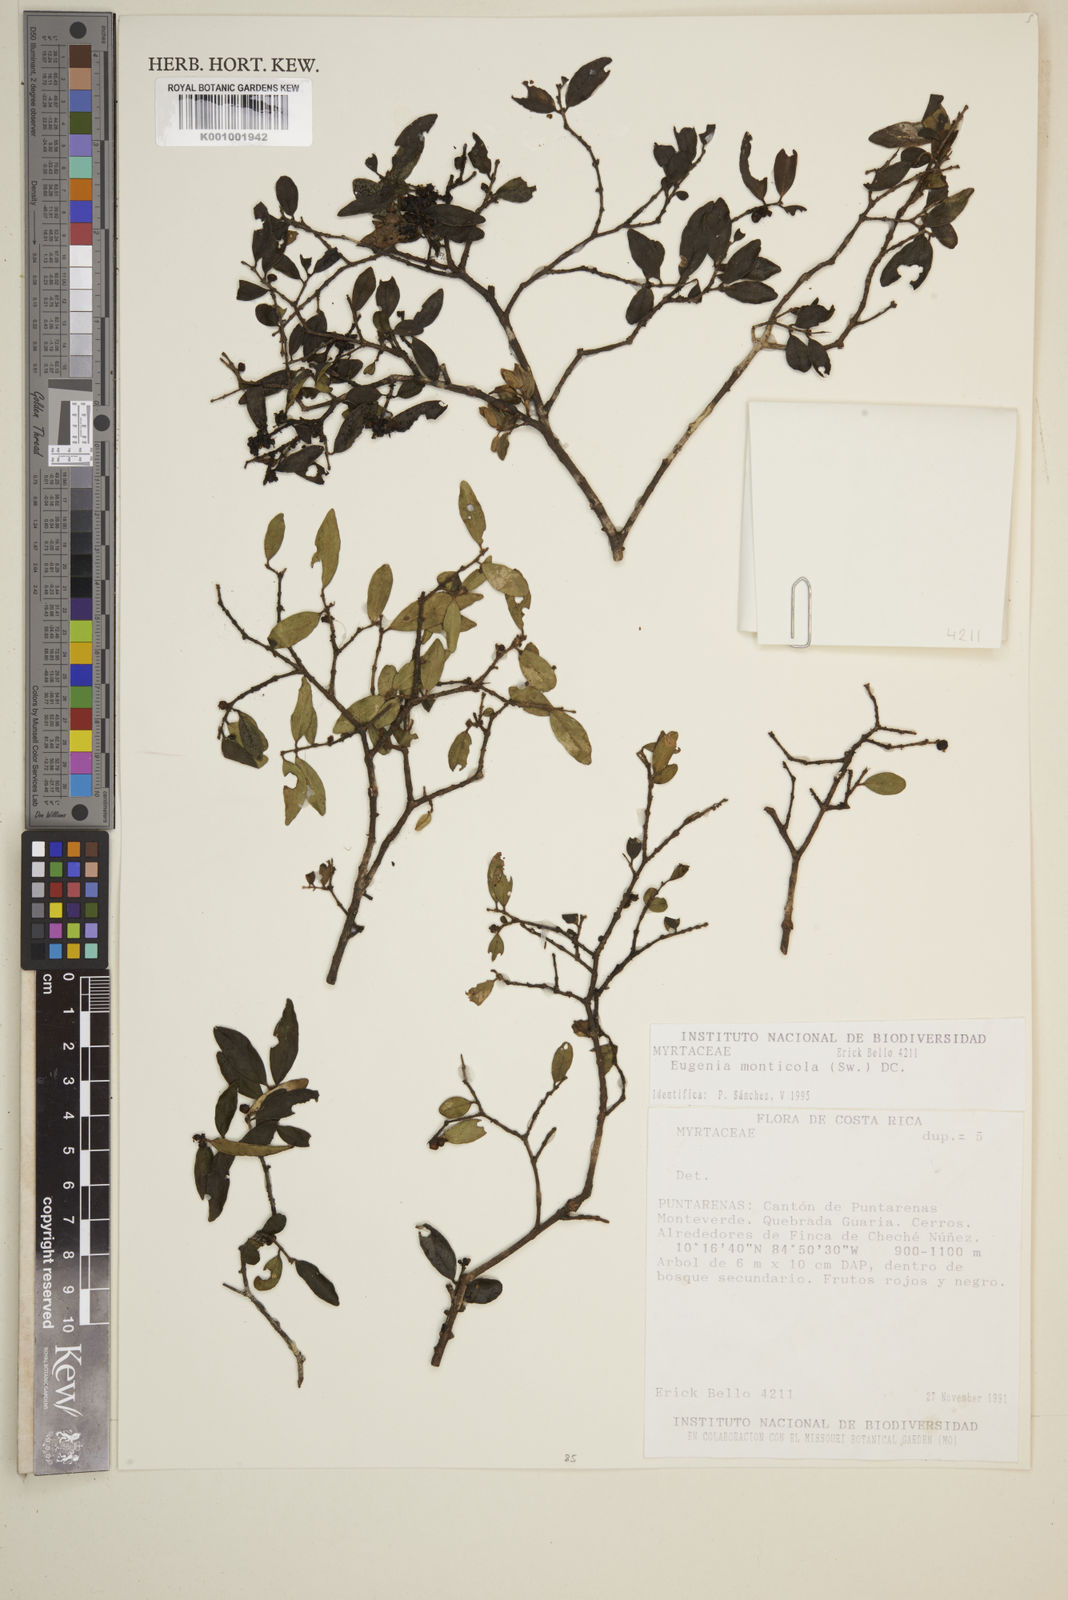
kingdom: Plantae
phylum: Tracheophyta
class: Magnoliopsida
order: Myrtales
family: Myrtaceae
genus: Eugenia
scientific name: Eugenia monticola
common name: Birds berry
